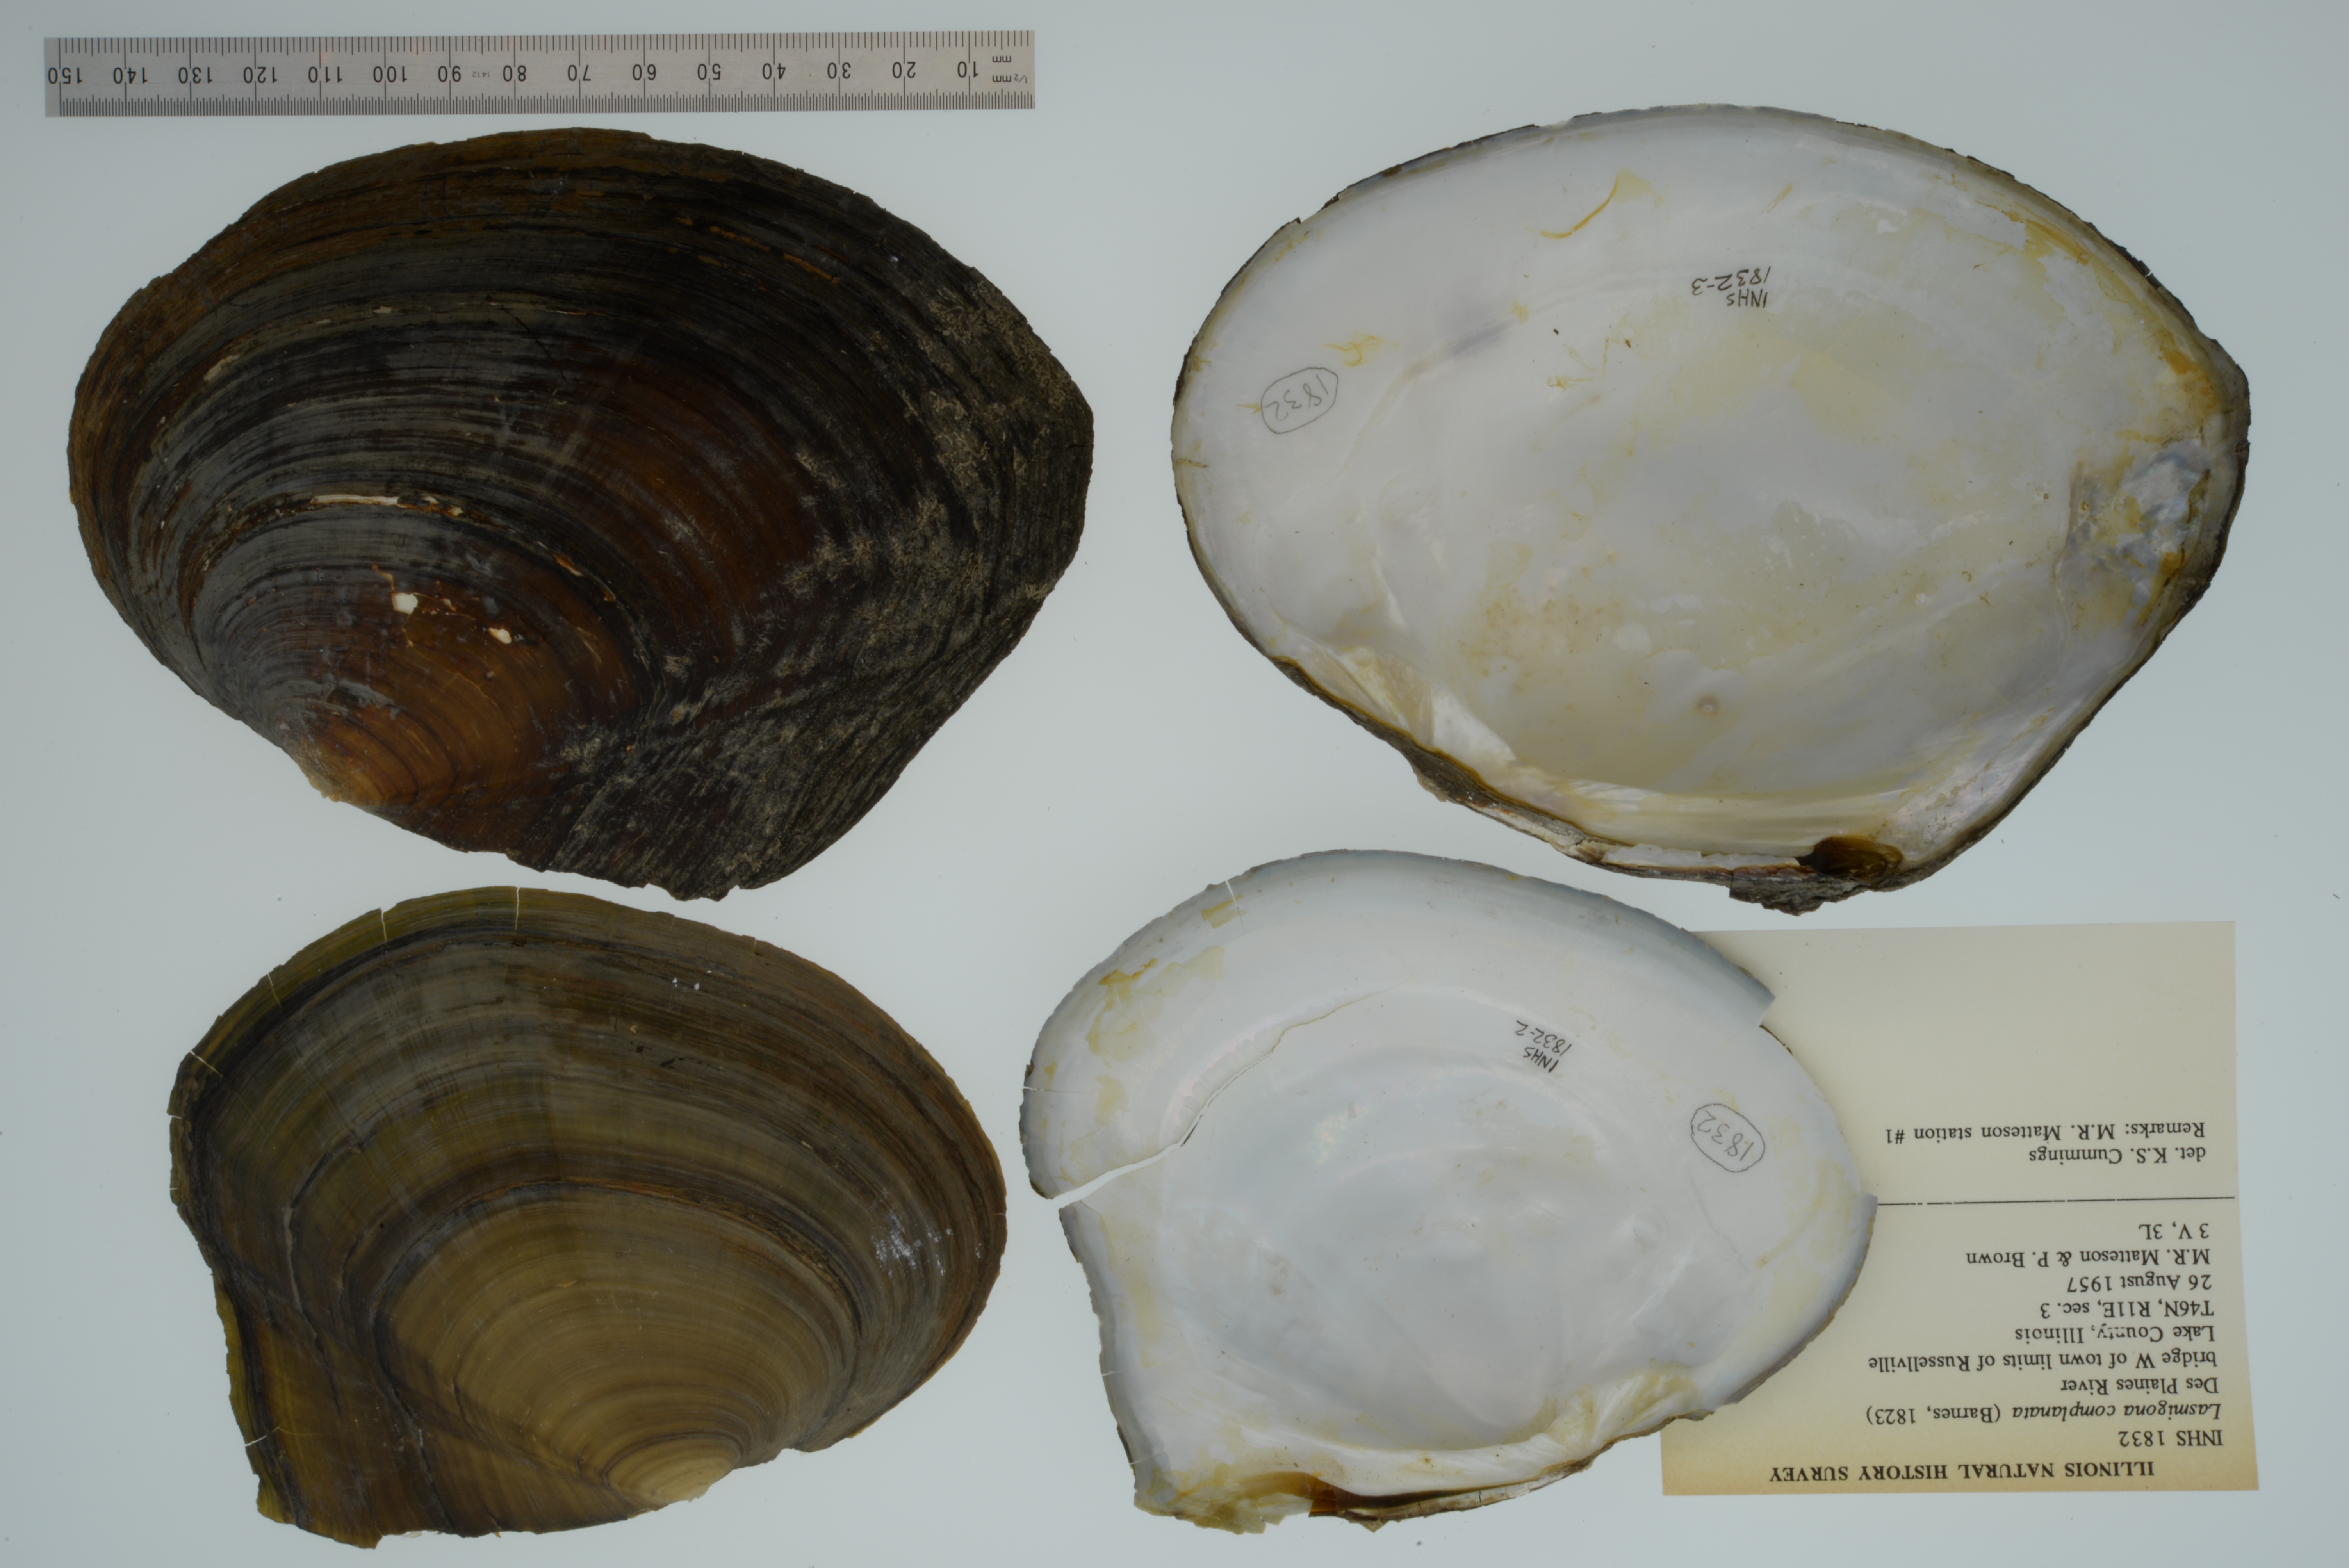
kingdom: Animalia
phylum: Mollusca
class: Bivalvia
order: Unionida
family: Unionidae
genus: Lasmigona
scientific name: Lasmigona complanata
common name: White heelsplitter
